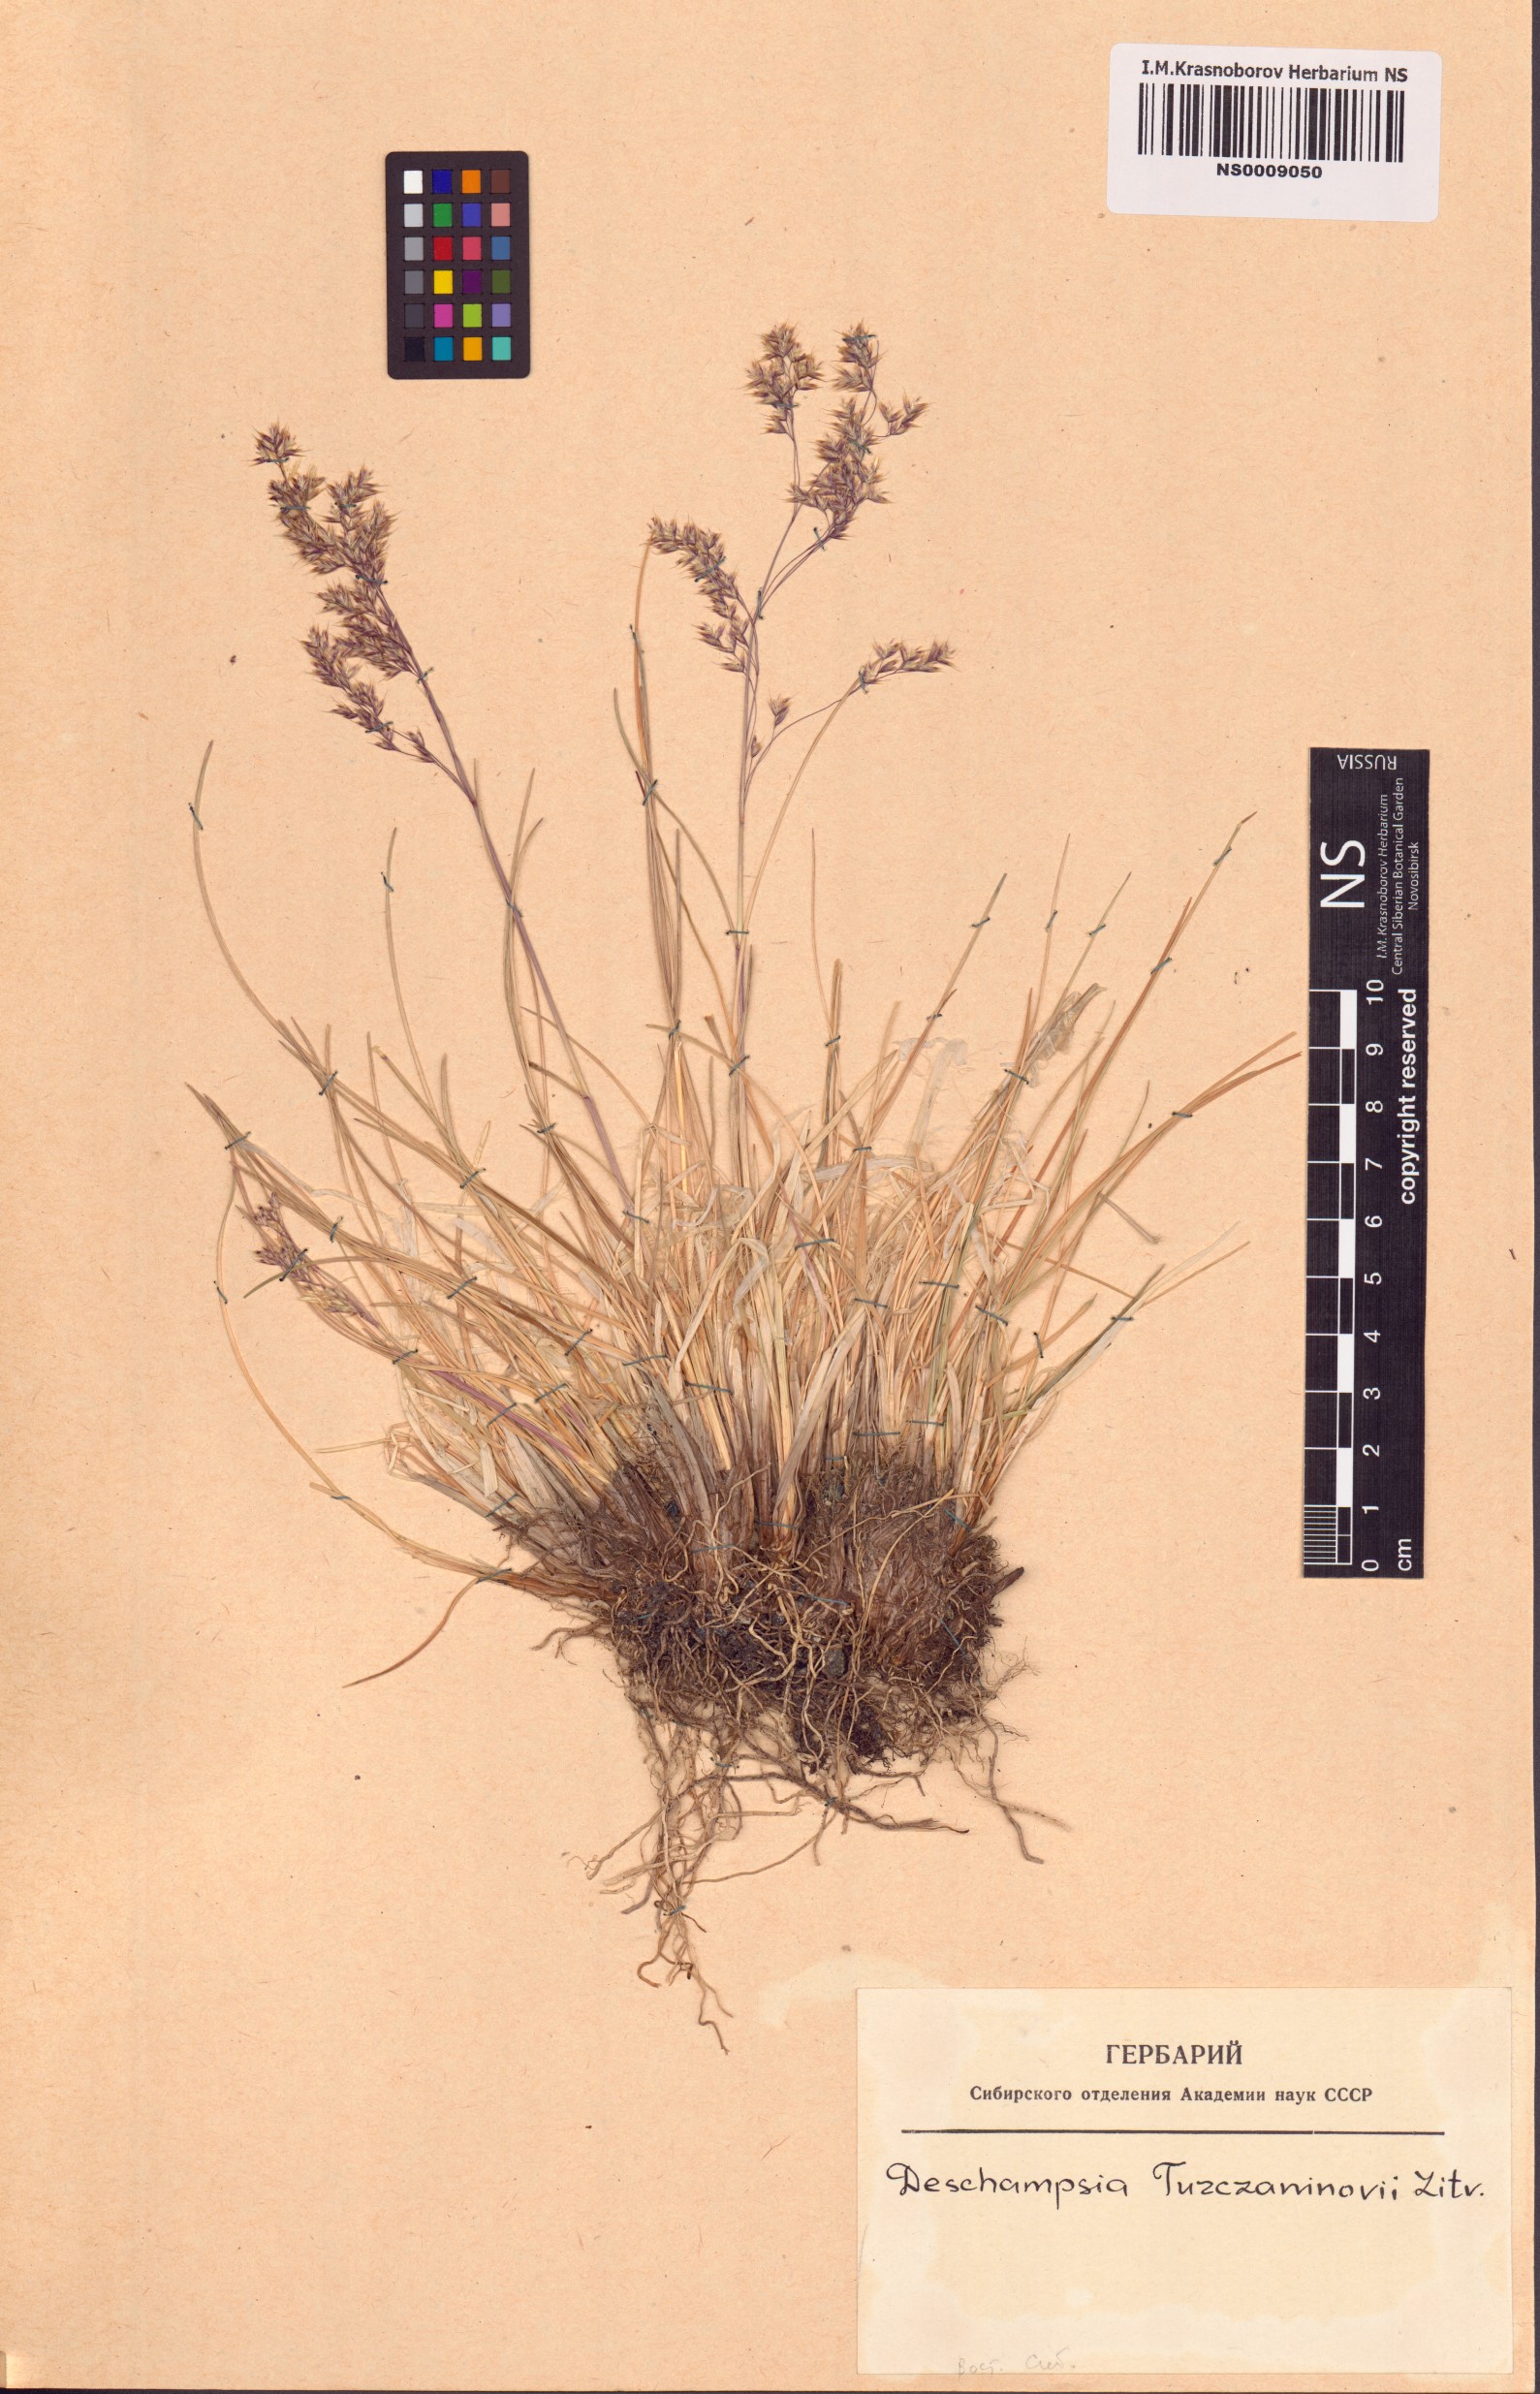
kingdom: Plantae
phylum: Tracheophyta
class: Liliopsida
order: Poales
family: Poaceae
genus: Deschampsia
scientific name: Deschampsia cespitosa
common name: Tufted hair-grass
